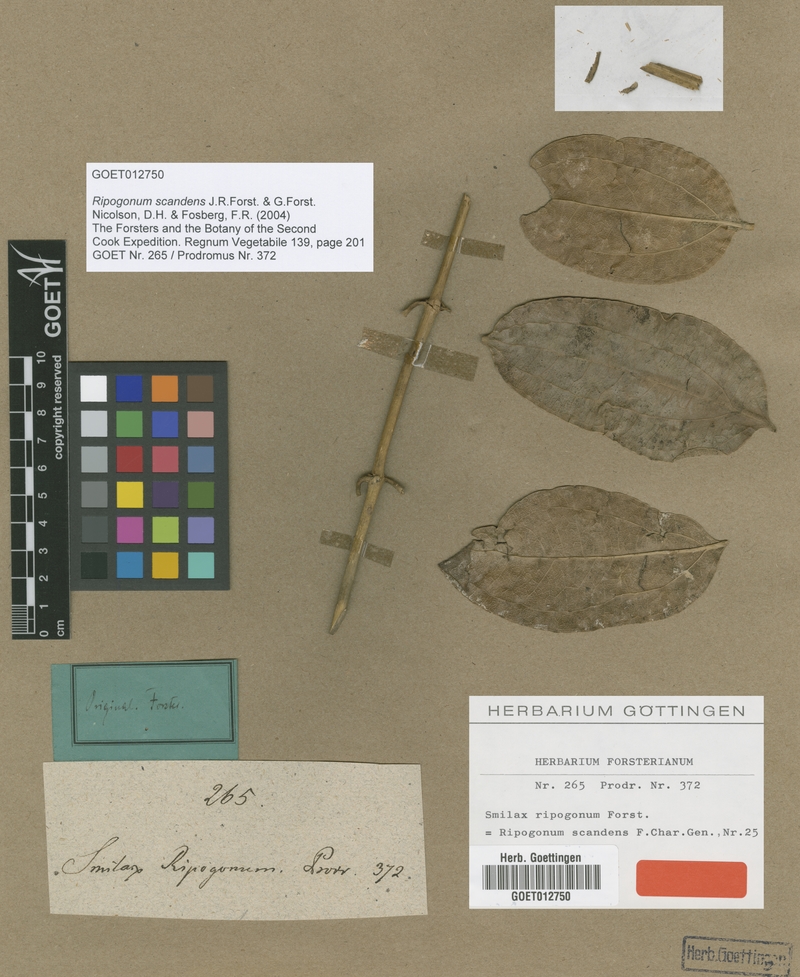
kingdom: Plantae
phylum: Tracheophyta
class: Liliopsida
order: Liliales
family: Ripogonaceae
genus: Ripogonum
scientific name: Ripogonum scandens
